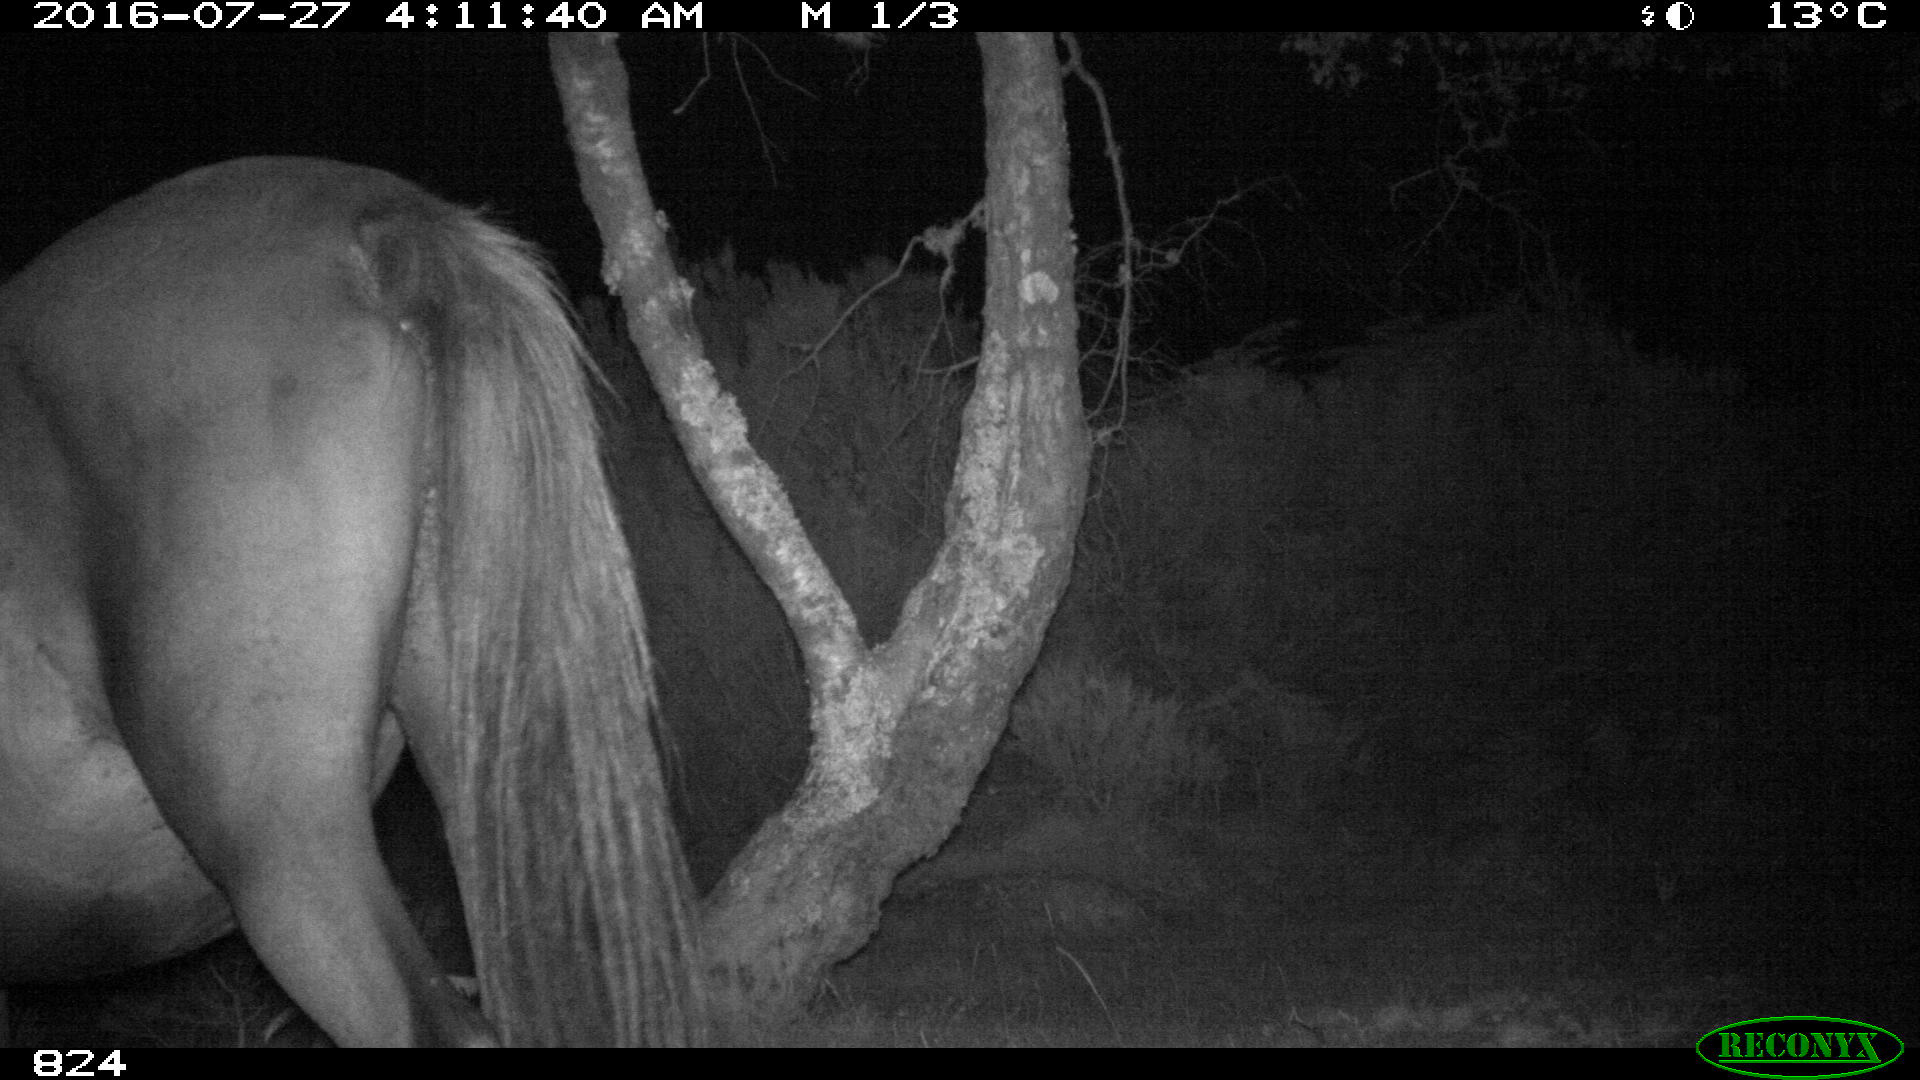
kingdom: Animalia
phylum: Chordata
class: Mammalia
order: Perissodactyla
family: Equidae
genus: Equus
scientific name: Equus caballus
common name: Horse
